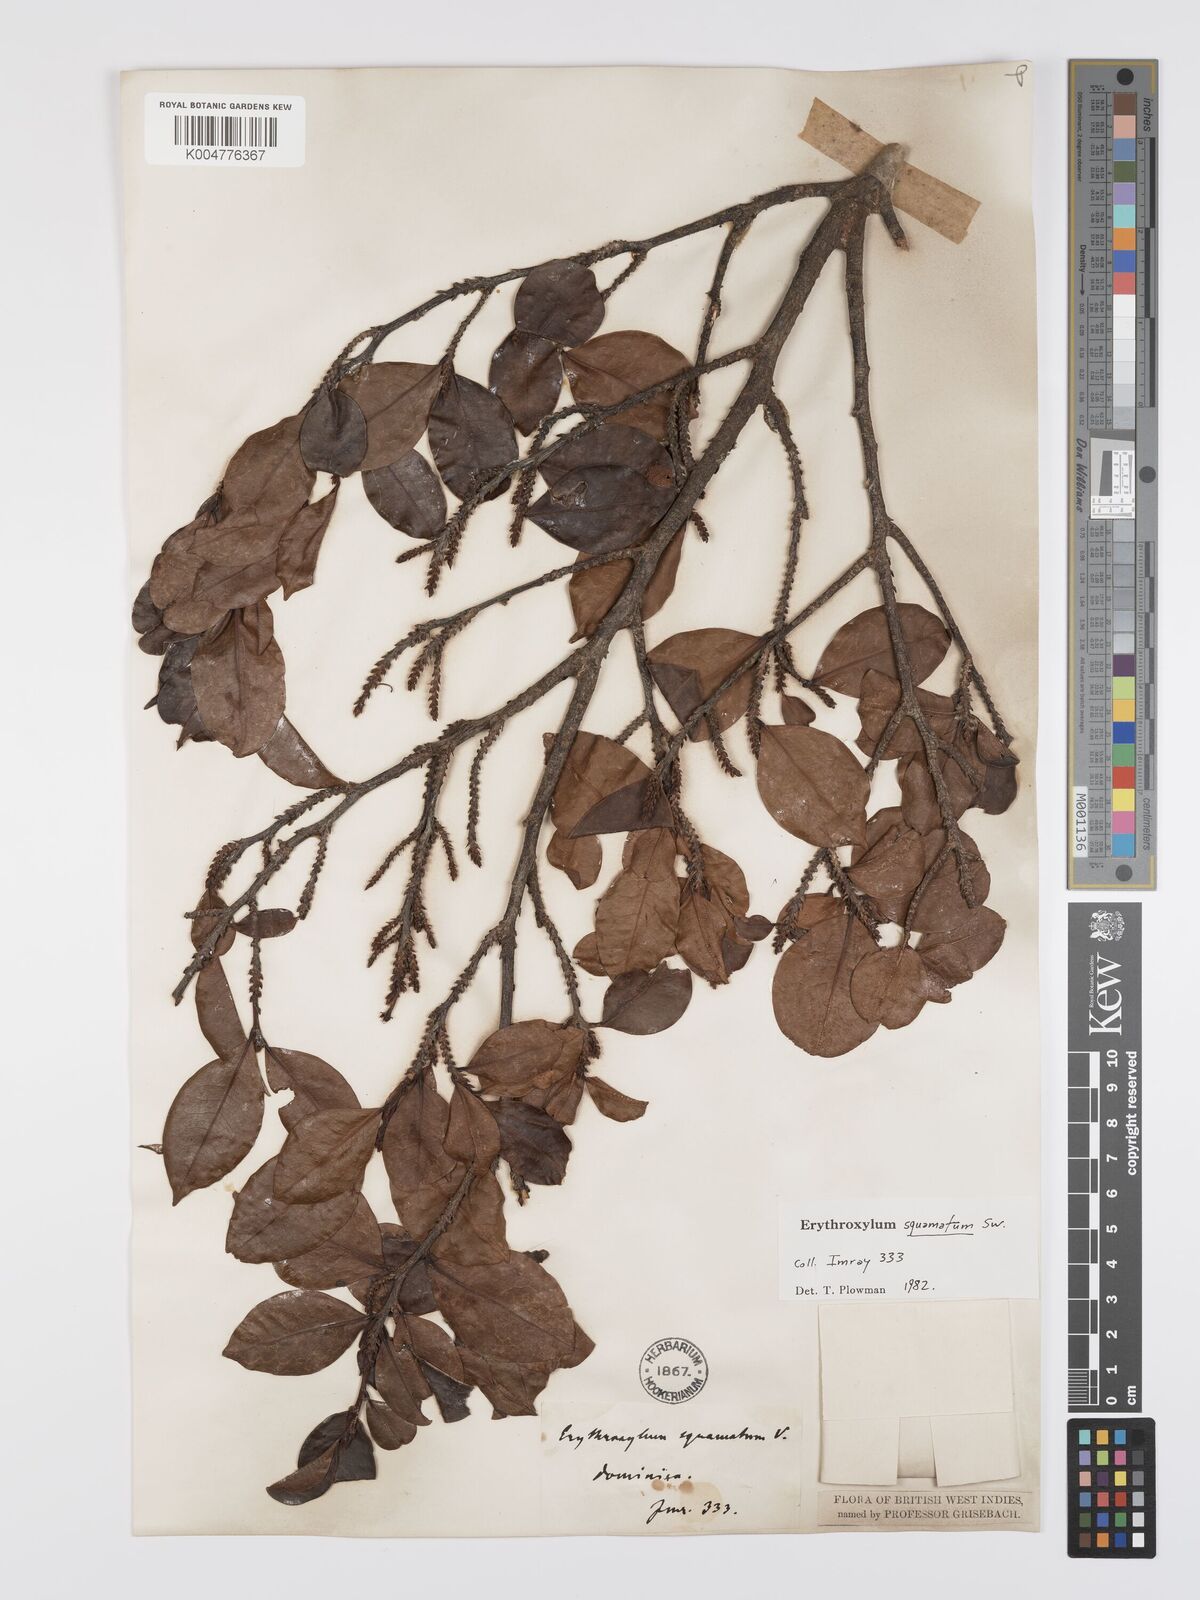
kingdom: Plantae
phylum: Tracheophyta
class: Magnoliopsida
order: Malpighiales
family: Erythroxylaceae
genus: Erythroxylum
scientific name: Erythroxylum squamatum
